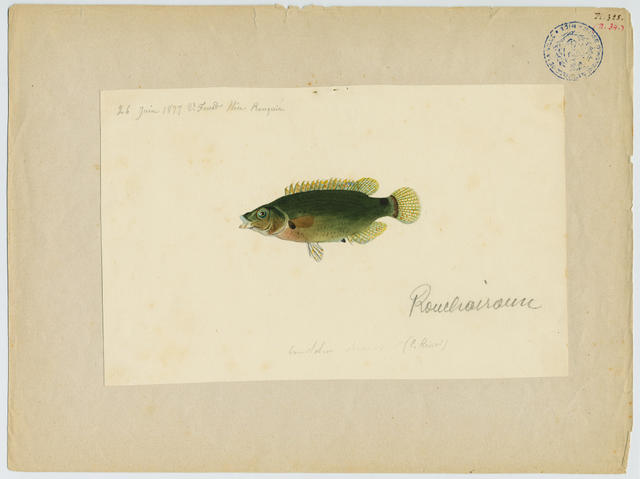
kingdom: Animalia
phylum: Chordata
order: Perciformes
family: Labridae
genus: Symphodus
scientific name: Symphodus
